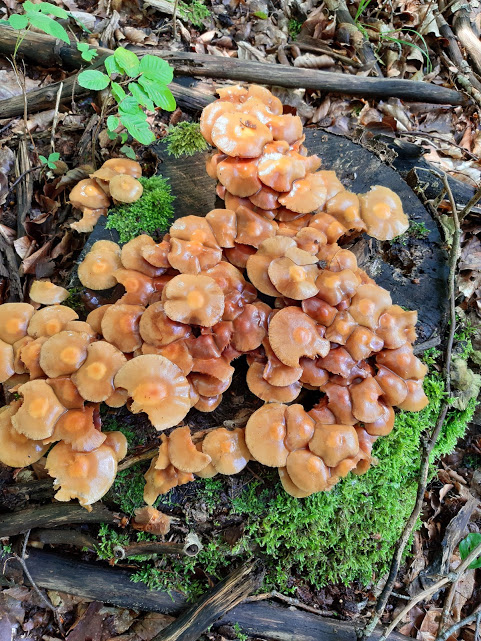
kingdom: Fungi
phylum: Basidiomycota
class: Agaricomycetes
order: Agaricales
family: Strophariaceae
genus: Kuehneromyces
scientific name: Kuehneromyces mutabilis
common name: foranderlig skælhat
